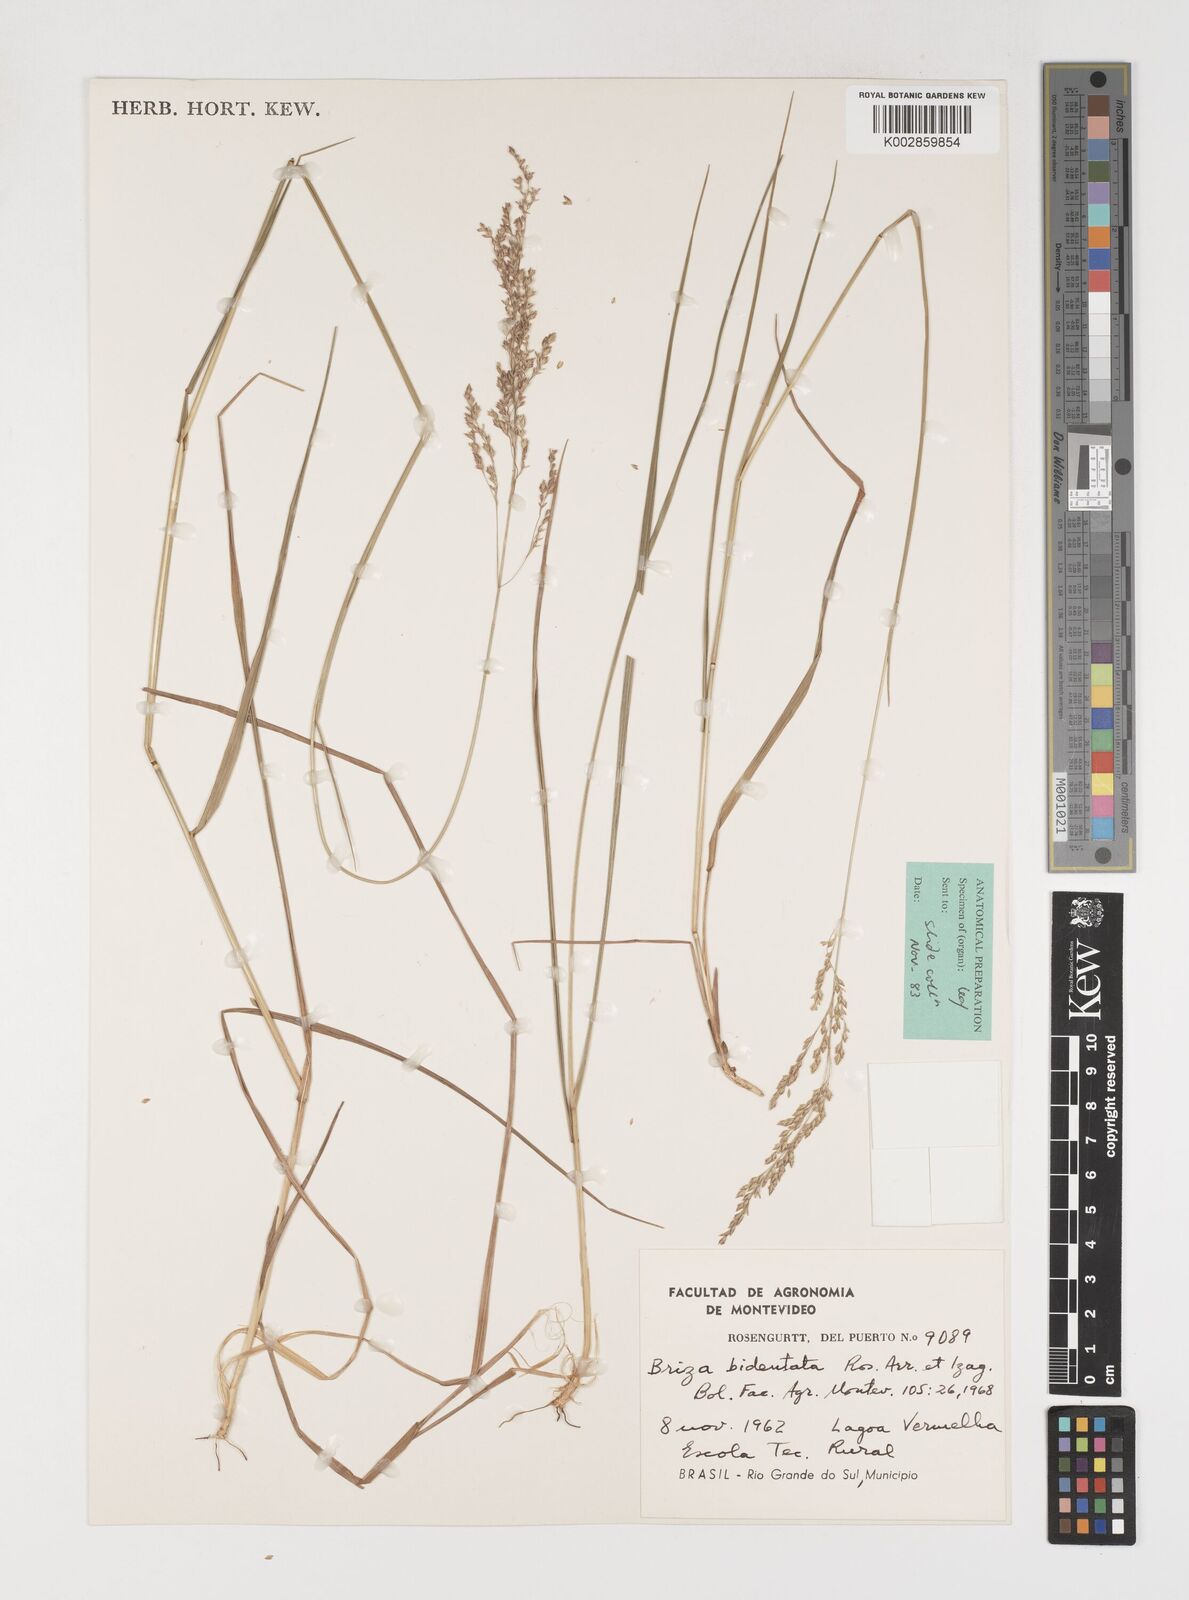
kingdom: Plantae
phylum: Tracheophyta
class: Liliopsida
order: Poales
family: Poaceae
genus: Rhombolytrum
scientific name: Rhombolytrum monandrum
